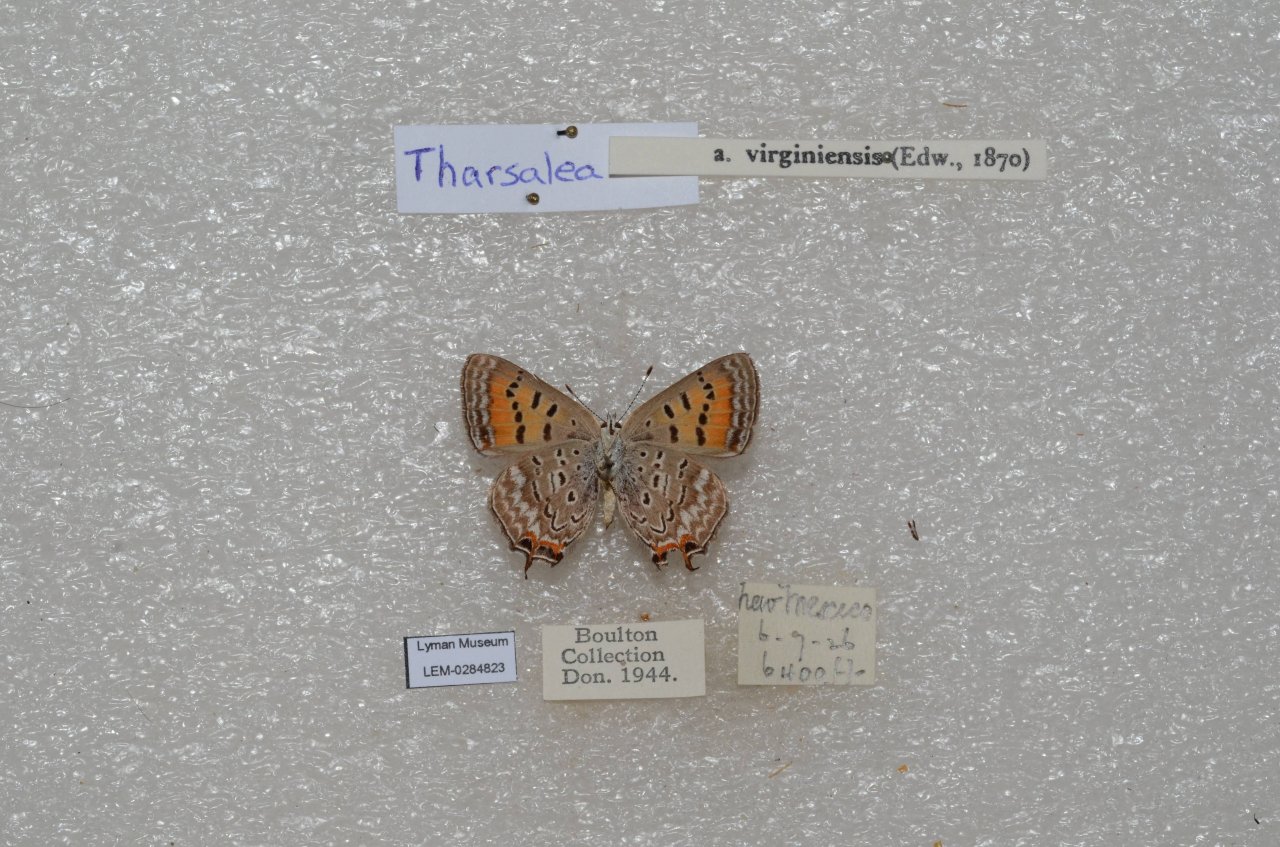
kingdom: Animalia
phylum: Arthropoda
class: Insecta
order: Lepidoptera
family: Sesiidae
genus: Sesia
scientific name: Sesia Lycaena arota
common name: Tailed Copper
